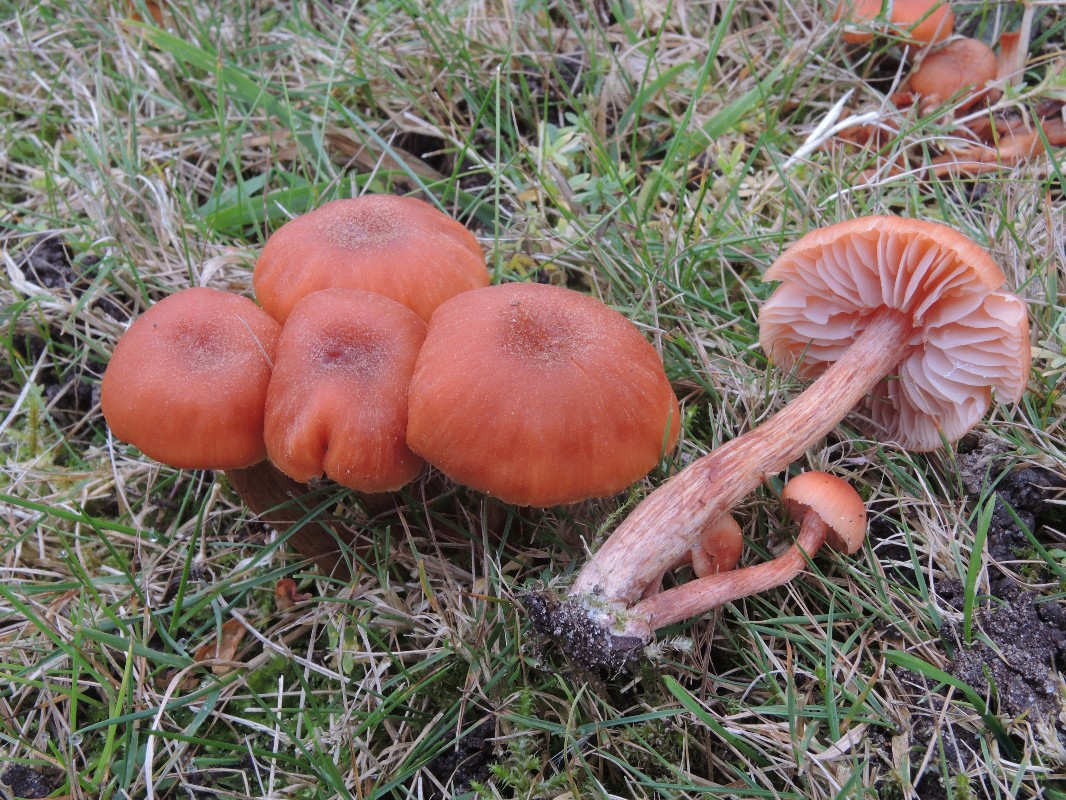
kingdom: Fungi
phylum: Basidiomycota
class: Agaricomycetes
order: Agaricales
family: Hydnangiaceae
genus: Laccaria
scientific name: Laccaria proxima
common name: stor ametysthat
